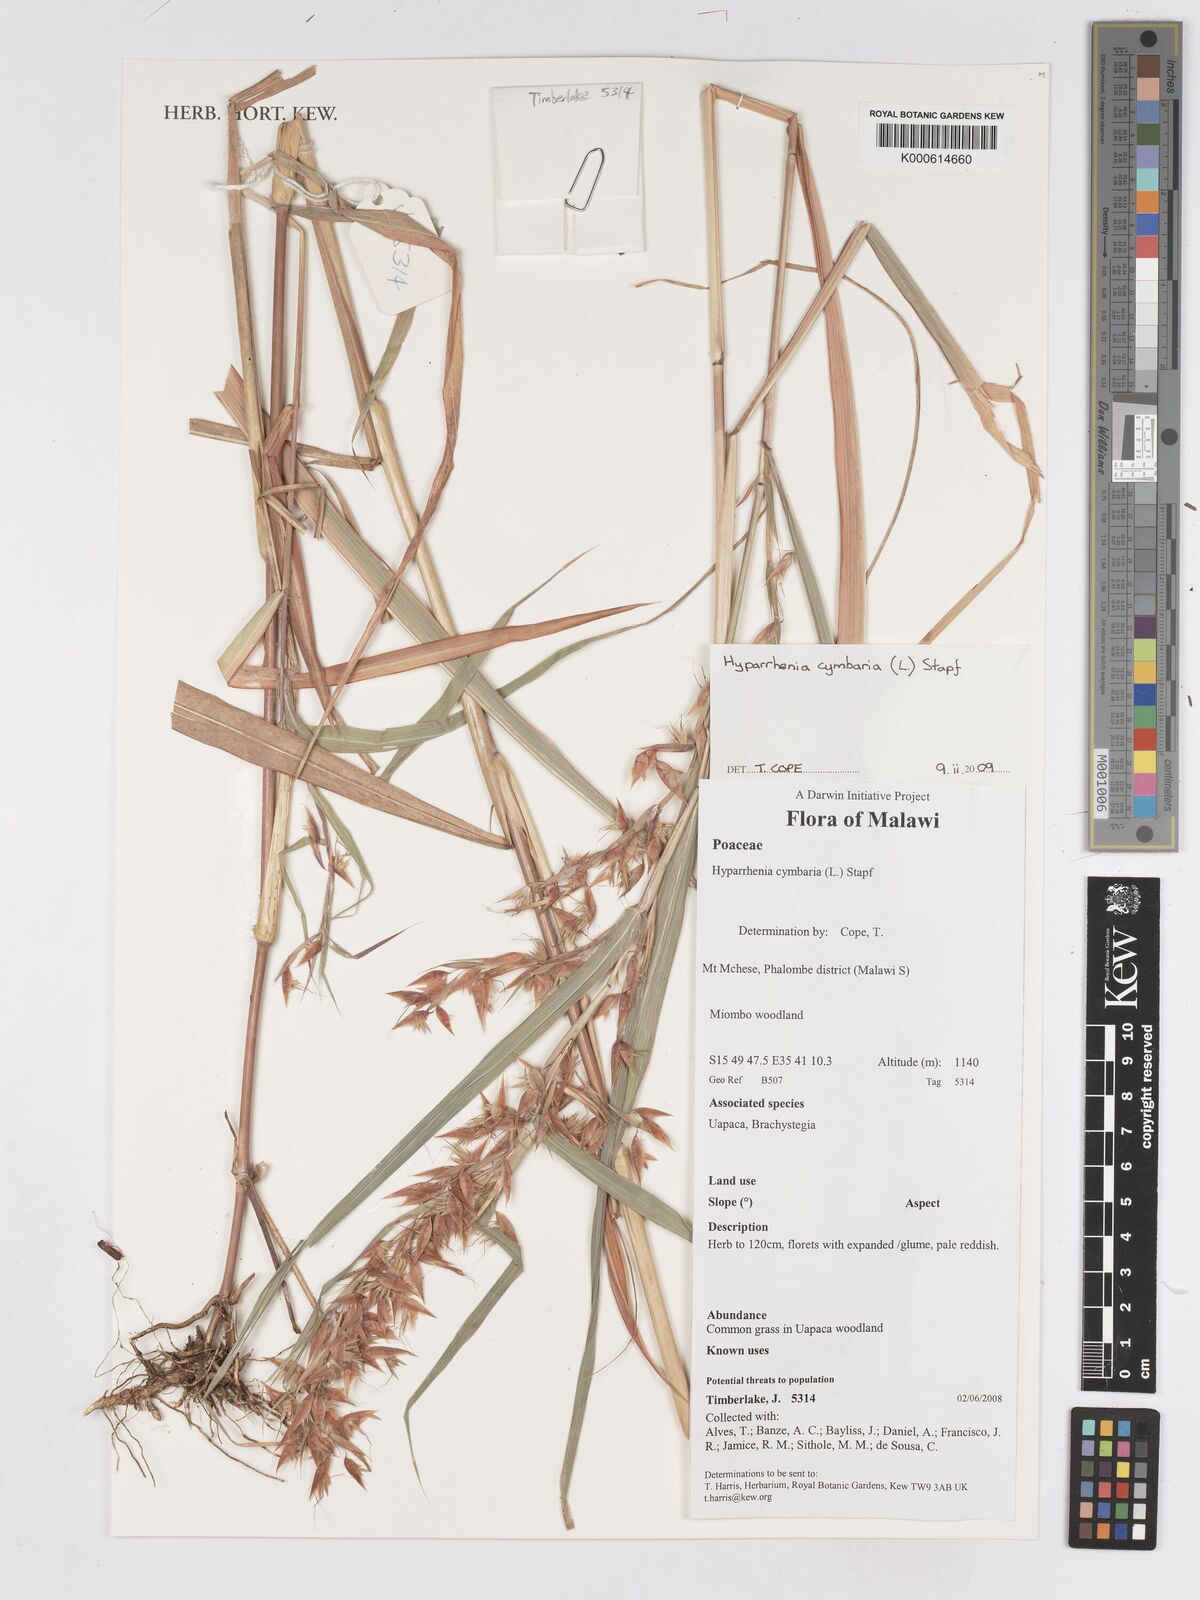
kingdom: Plantae
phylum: Tracheophyta
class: Liliopsida
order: Poales
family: Poaceae
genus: Hyparrhenia
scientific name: Hyparrhenia cymbaria
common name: Boat thatching grass
